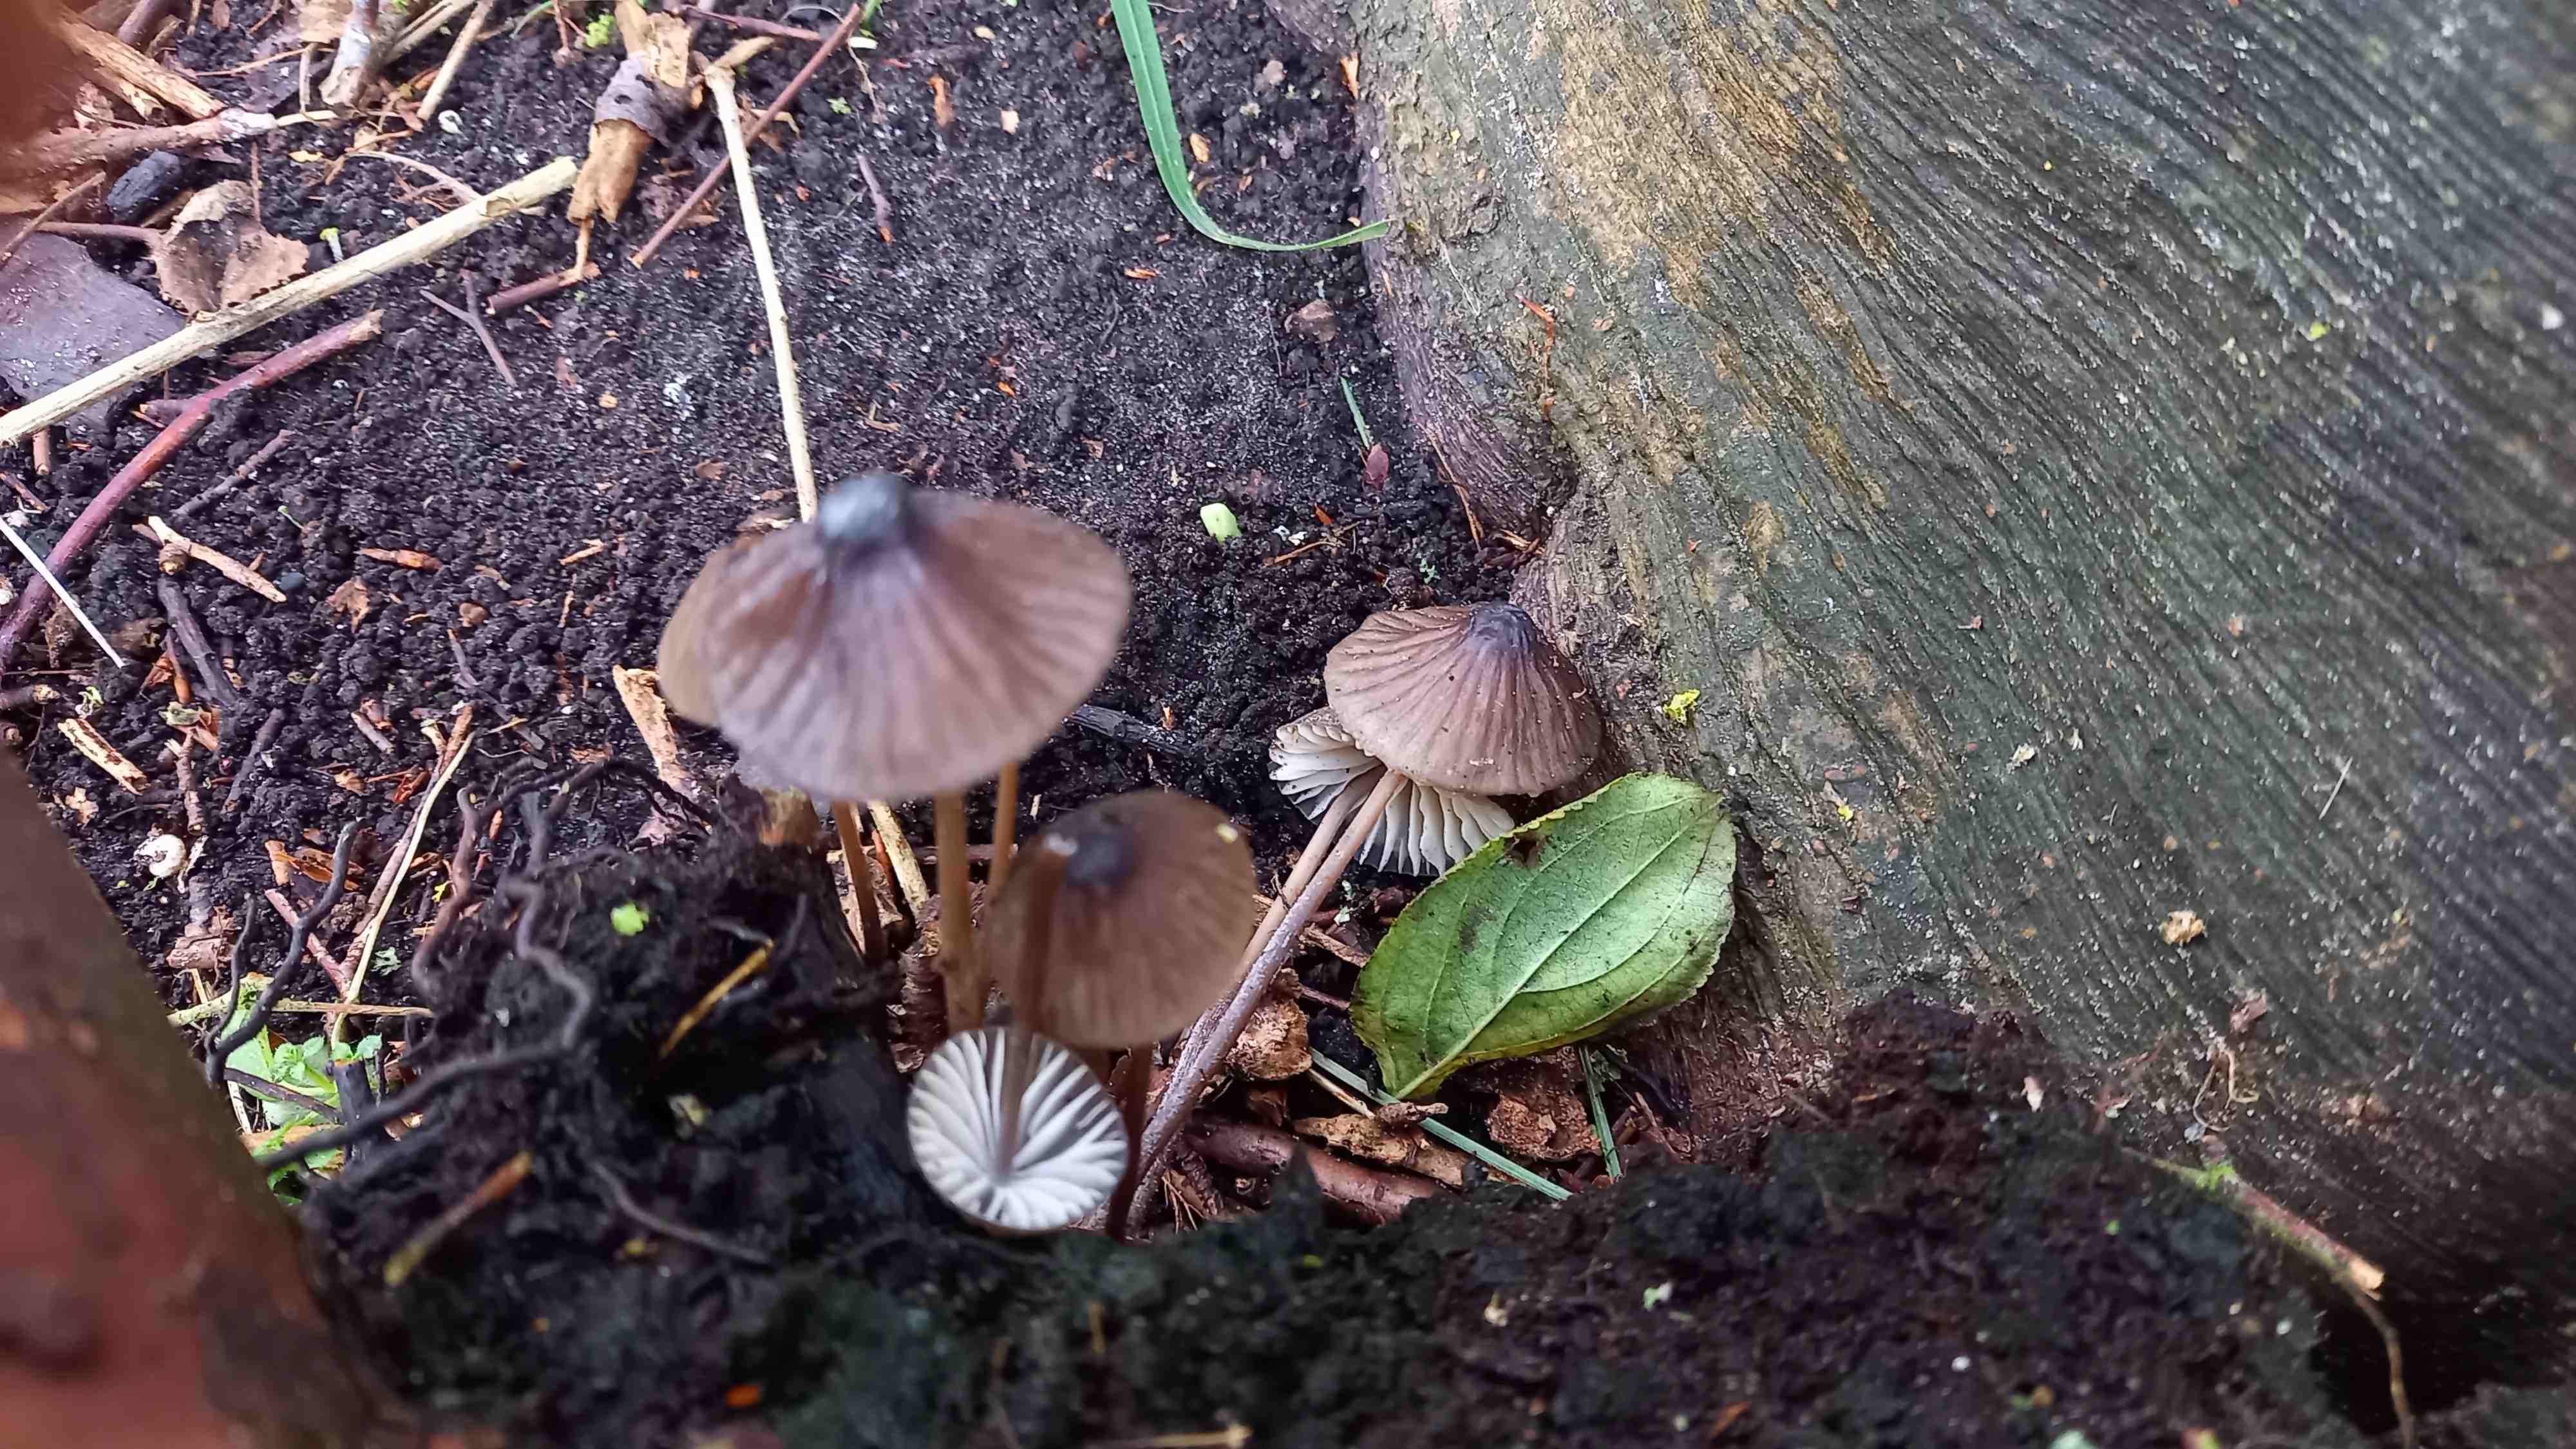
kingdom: Fungi
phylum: Basidiomycota
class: Agaricomycetes
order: Agaricales
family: Mycenaceae
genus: Mycena
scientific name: Mycena galopus
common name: hvidmælket huesvamp
